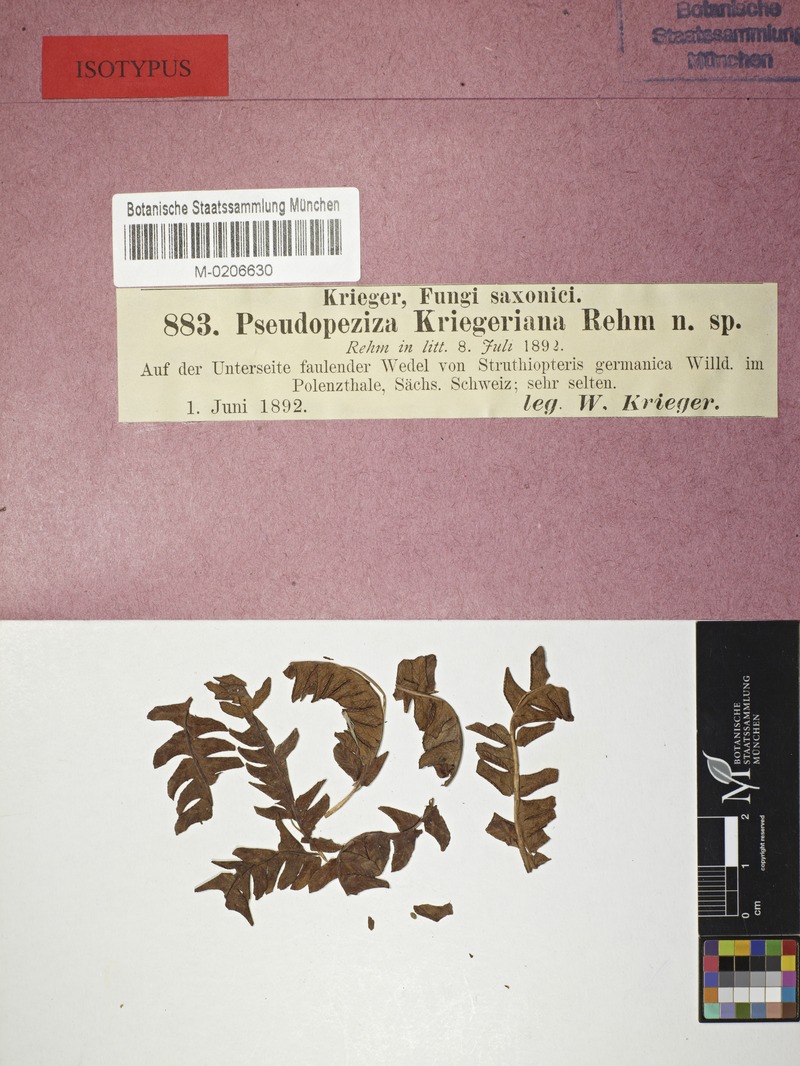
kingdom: Fungi
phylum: Ascomycota
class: Leotiomycetes
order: Helotiales
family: Drepanopezizaceae
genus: Pseudopeziza
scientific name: Pseudopeziza kriegeriana
